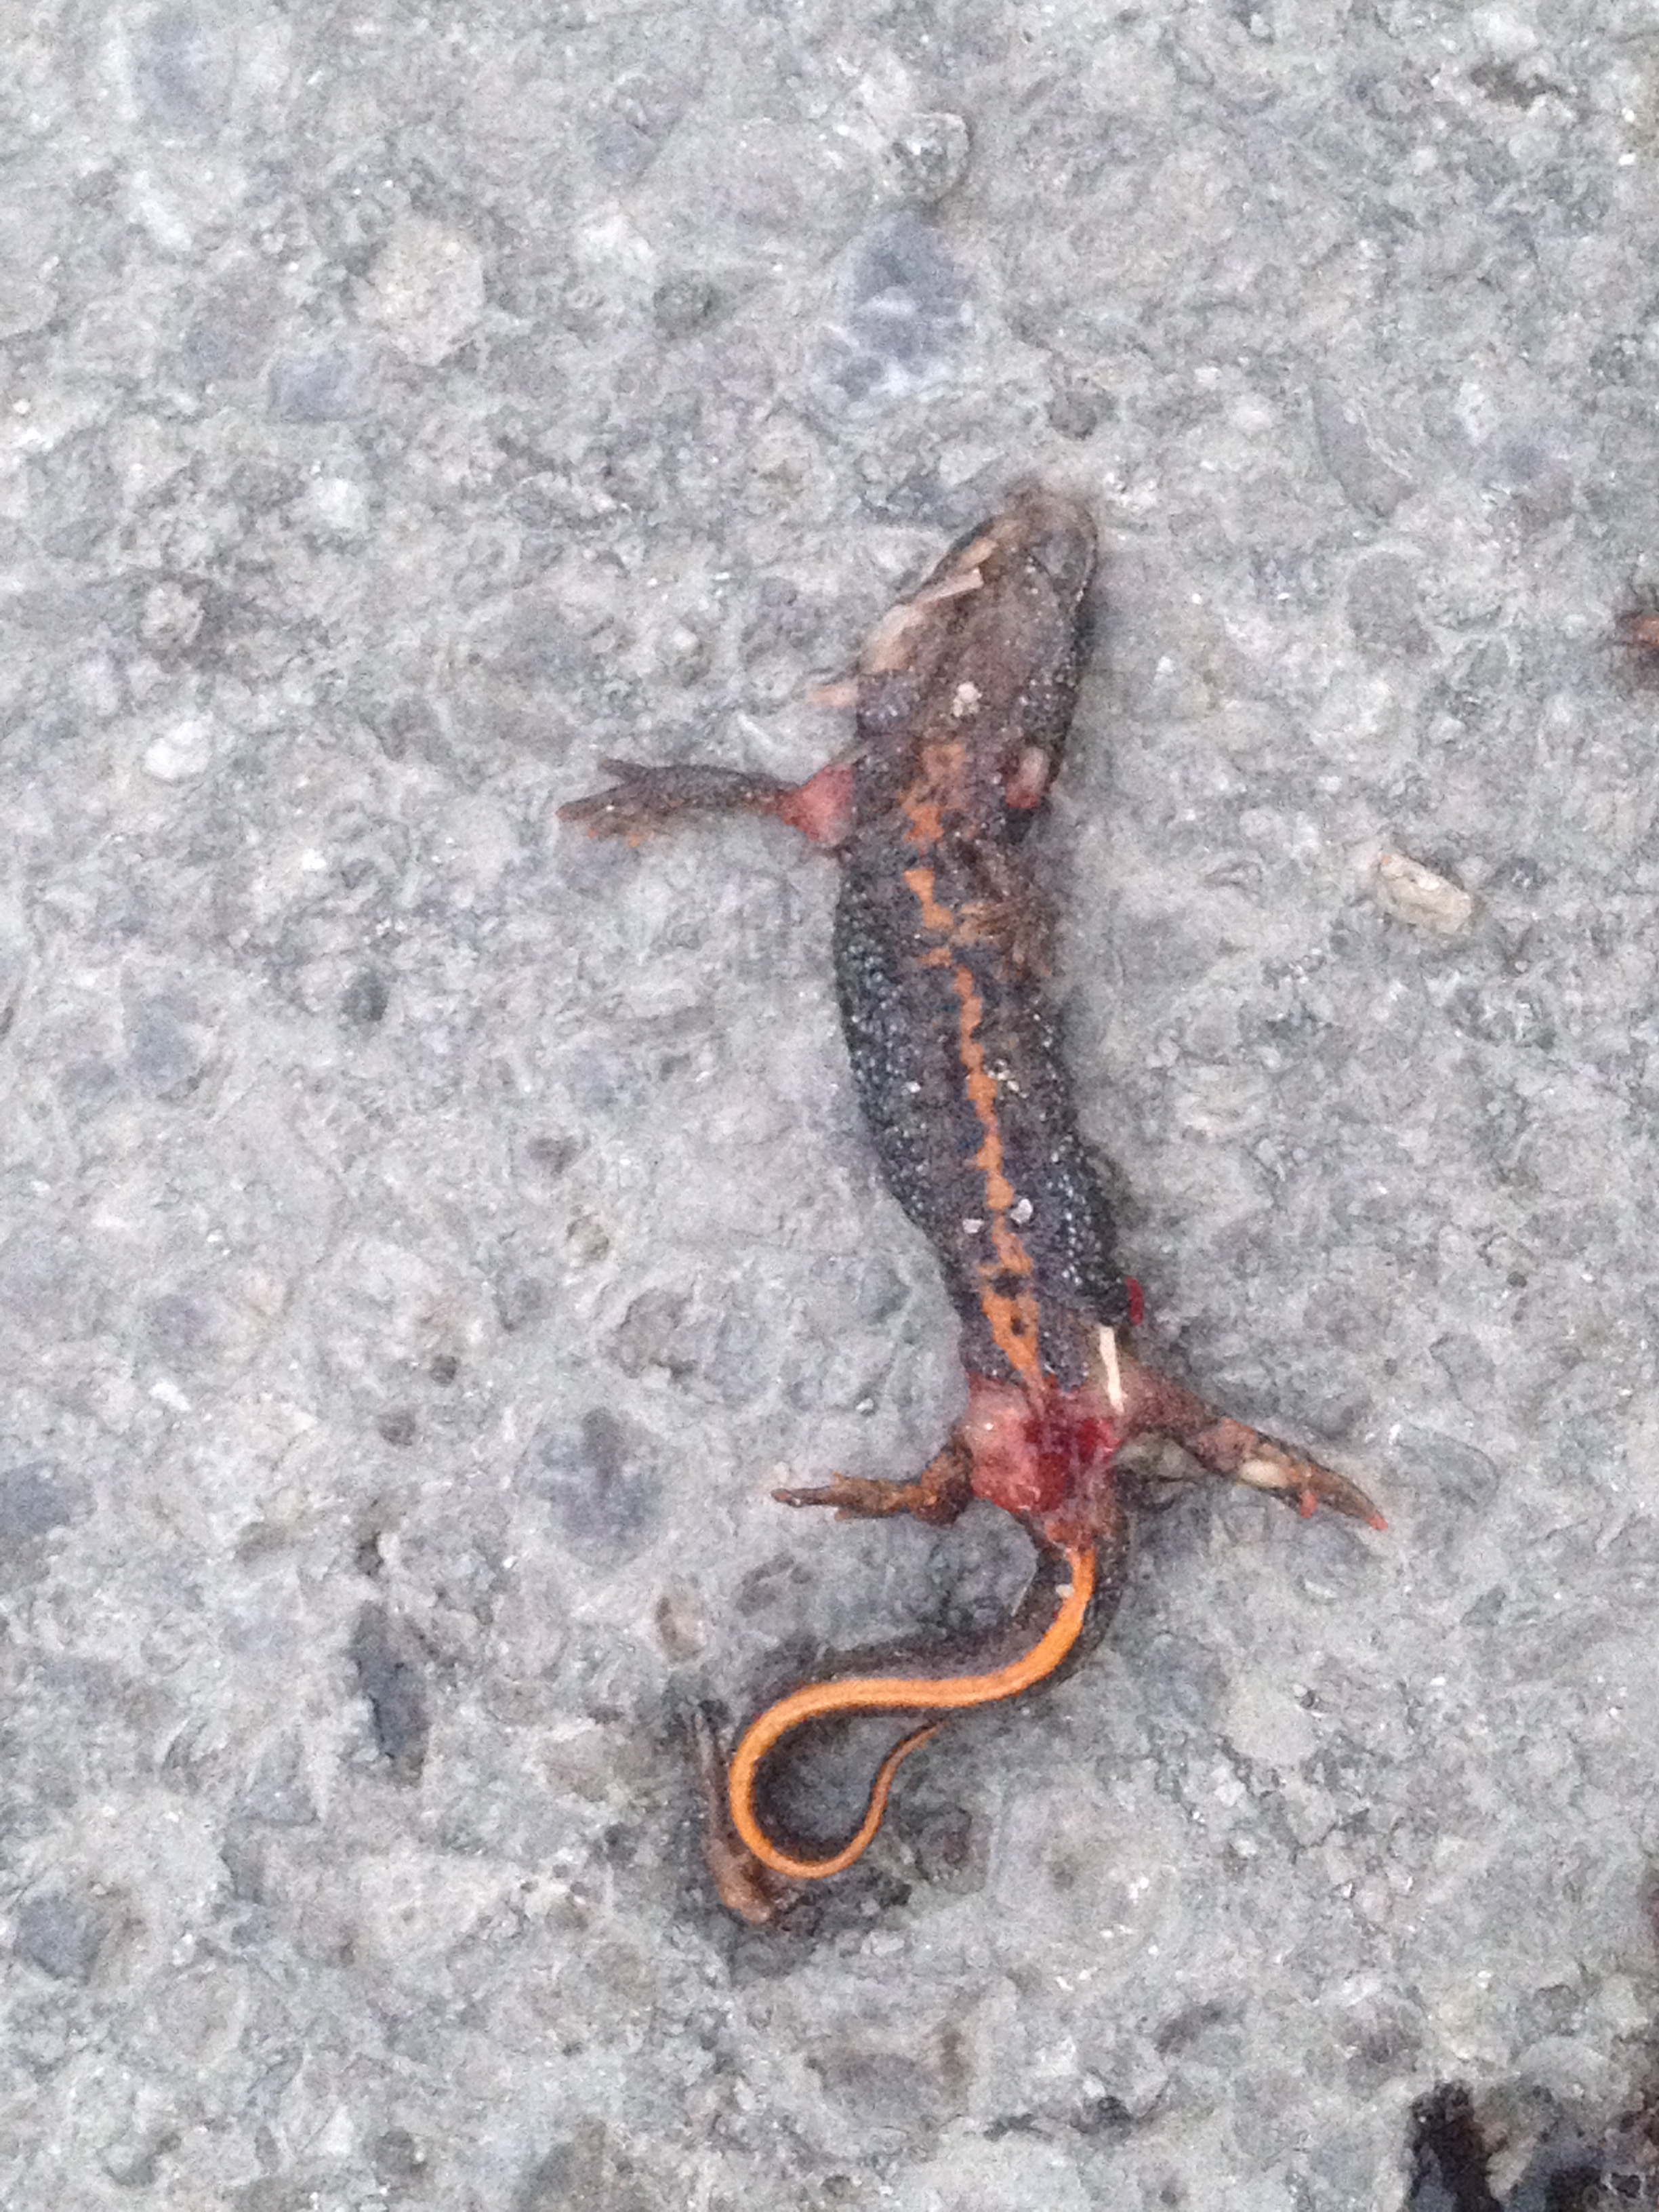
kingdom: Animalia
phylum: Chordata
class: Amphibia
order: Caudata
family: Salamandridae
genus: Triturus
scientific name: Triturus dobrogicus
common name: Danube crested newt
